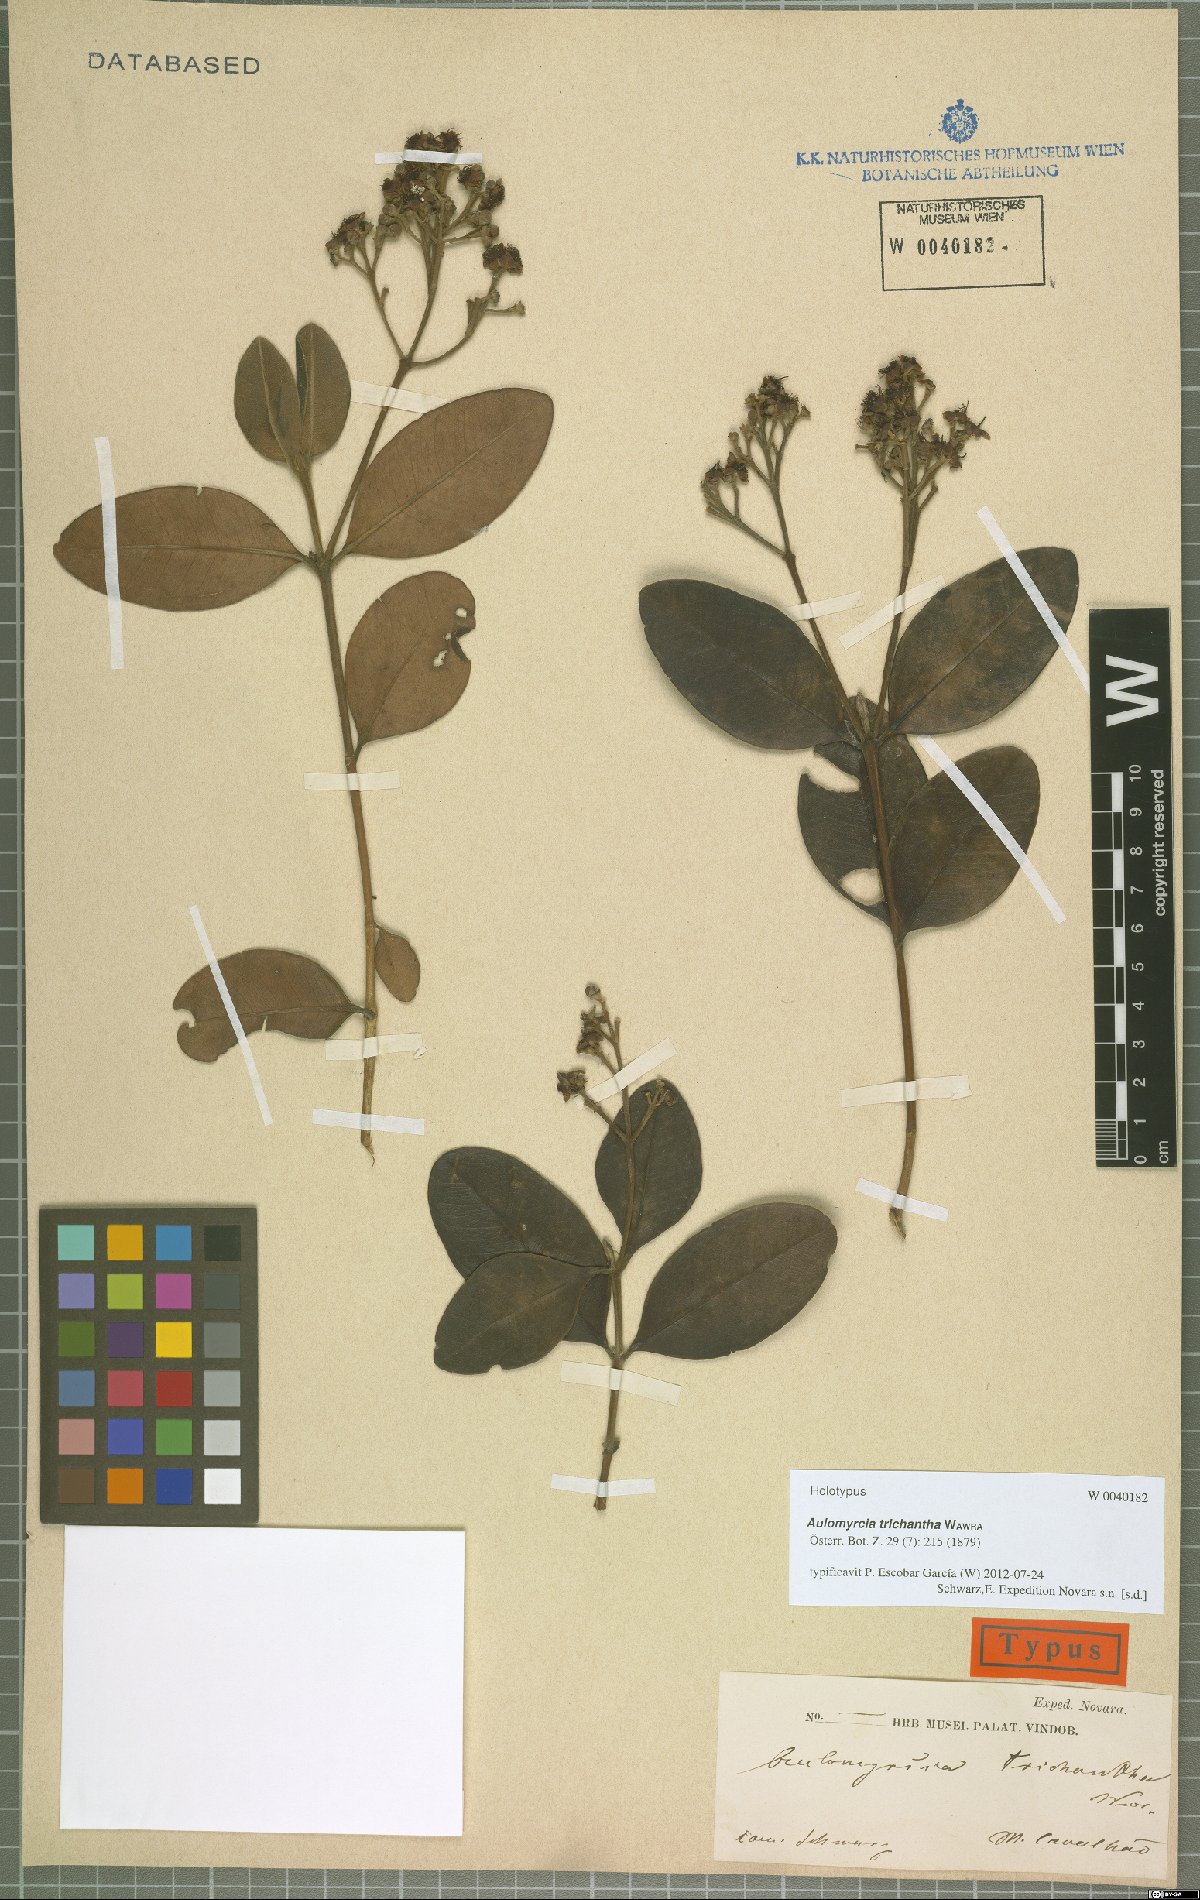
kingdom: Plantae
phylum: Tracheophyta
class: Magnoliopsida
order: Myrtales
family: Myrtaceae
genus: Myrcia
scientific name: Myrcia trichantha
